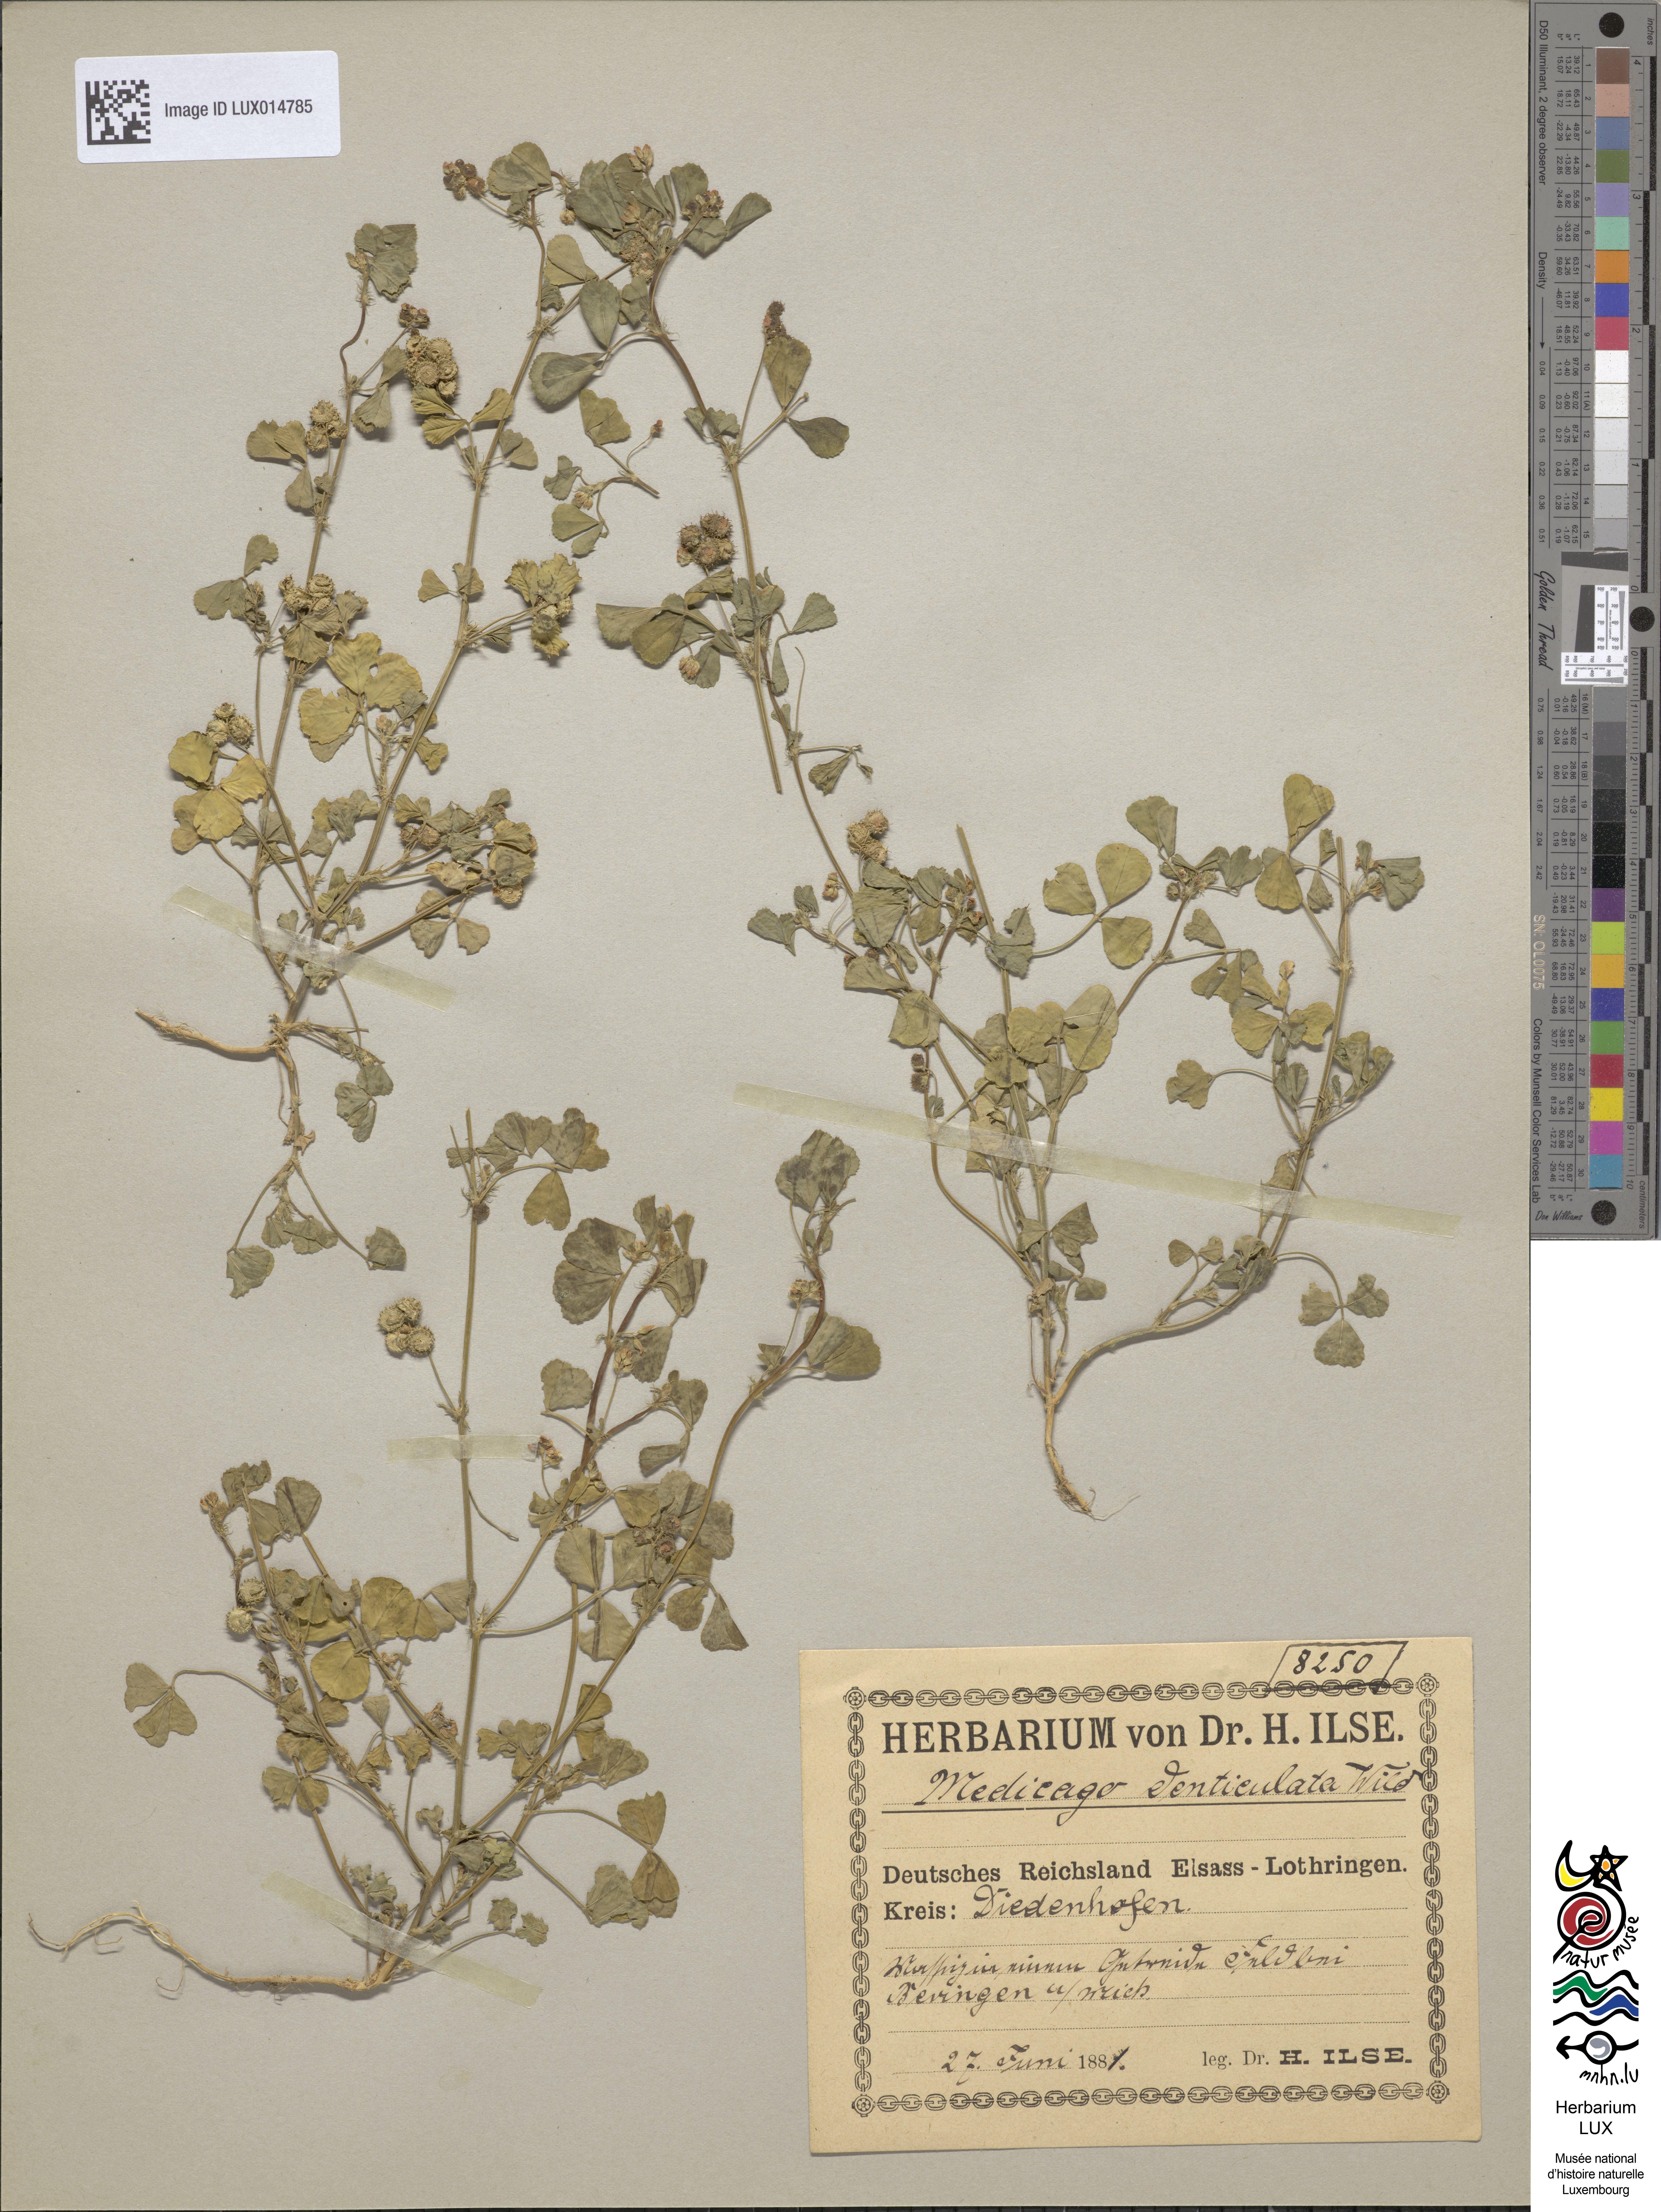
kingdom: Plantae
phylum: Tracheophyta
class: Magnoliopsida
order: Fabales
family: Fabaceae
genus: Medicago
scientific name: Medicago polymorpha
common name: Burclover
